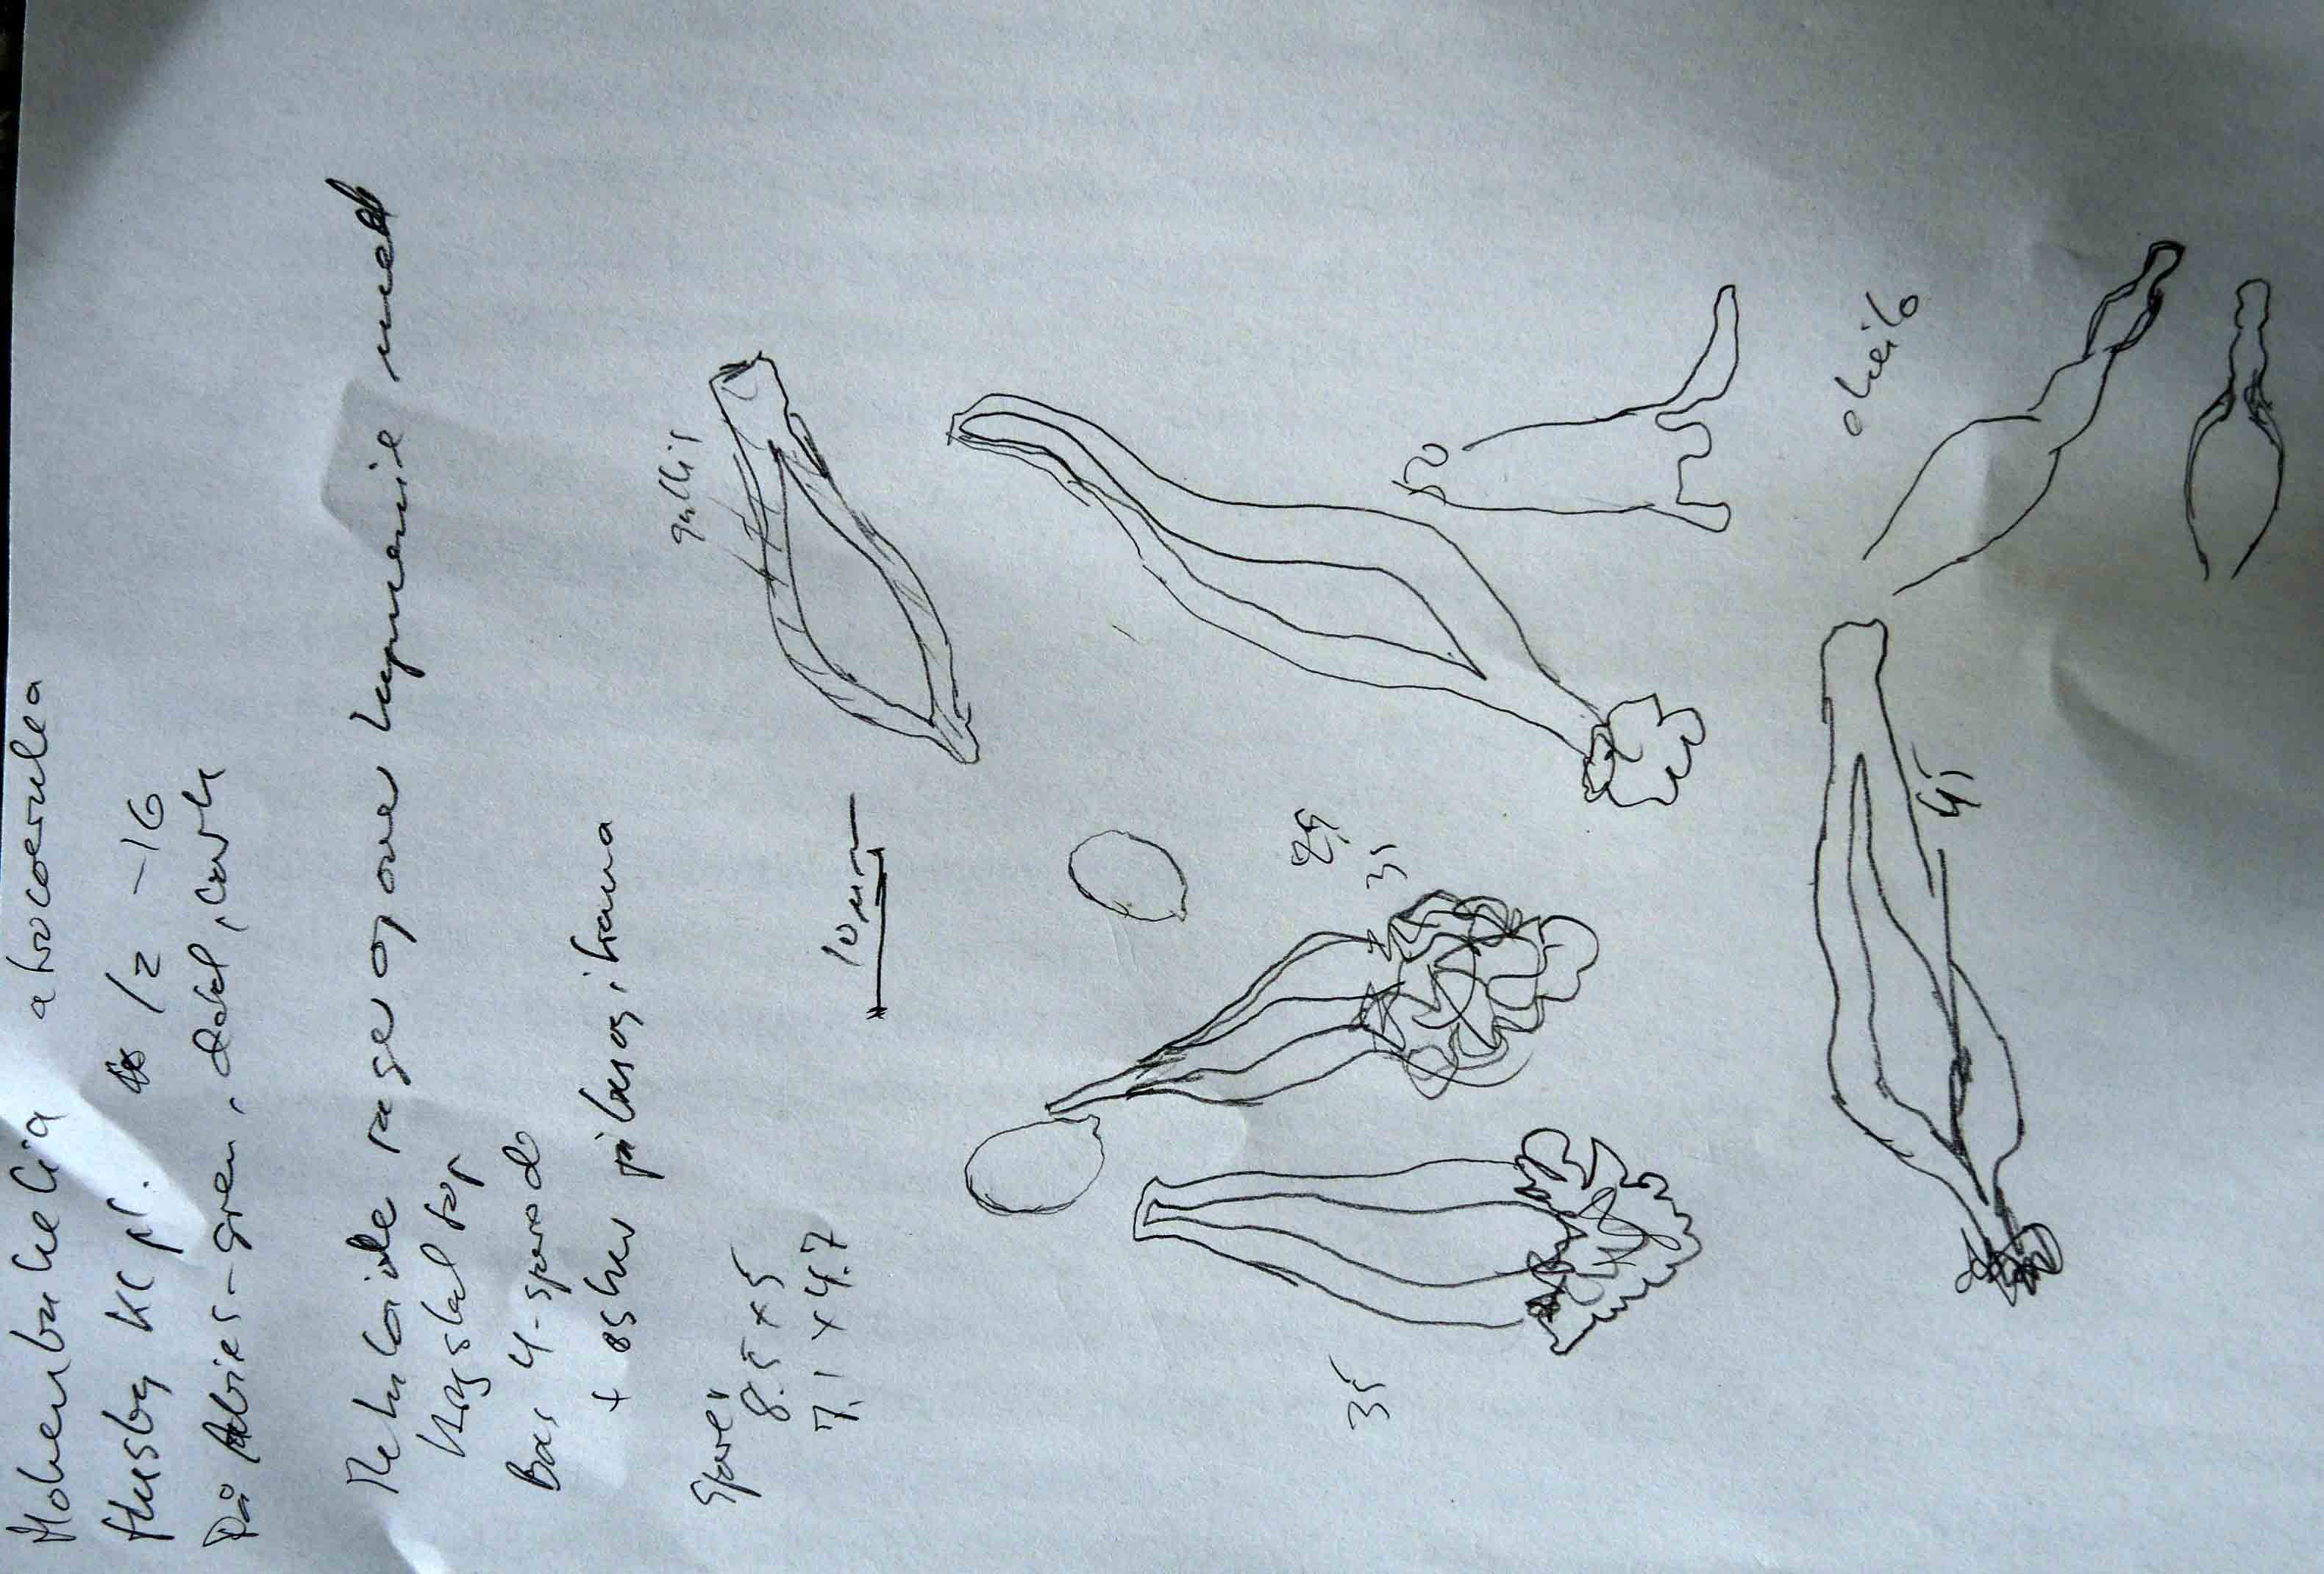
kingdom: Fungi
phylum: Basidiomycota
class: Agaricomycetes
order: Agaricales
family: Pleurotaceae
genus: Hohenbuehelia
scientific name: Hohenbuehelia atrocoerulea
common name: blålig filthat
